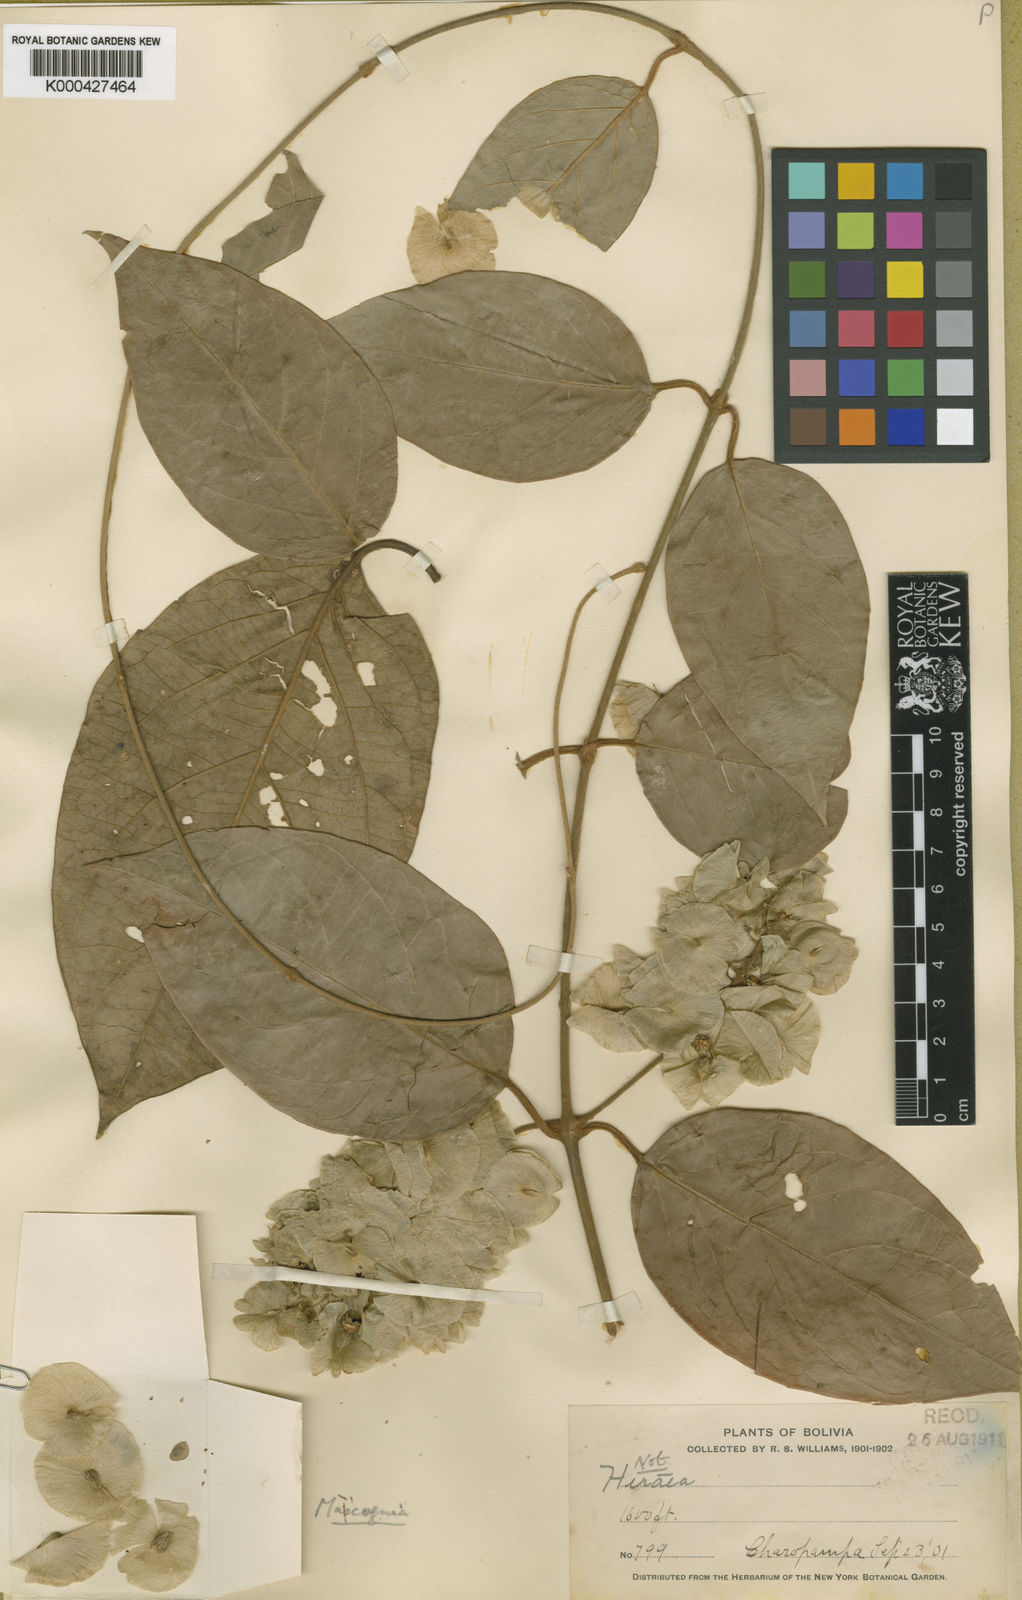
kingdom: Plantae
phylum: Tracheophyta
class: Magnoliopsida
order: Malpighiales
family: Malpighiaceae
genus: Mascagnia
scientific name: Mascagnia strigulosa
